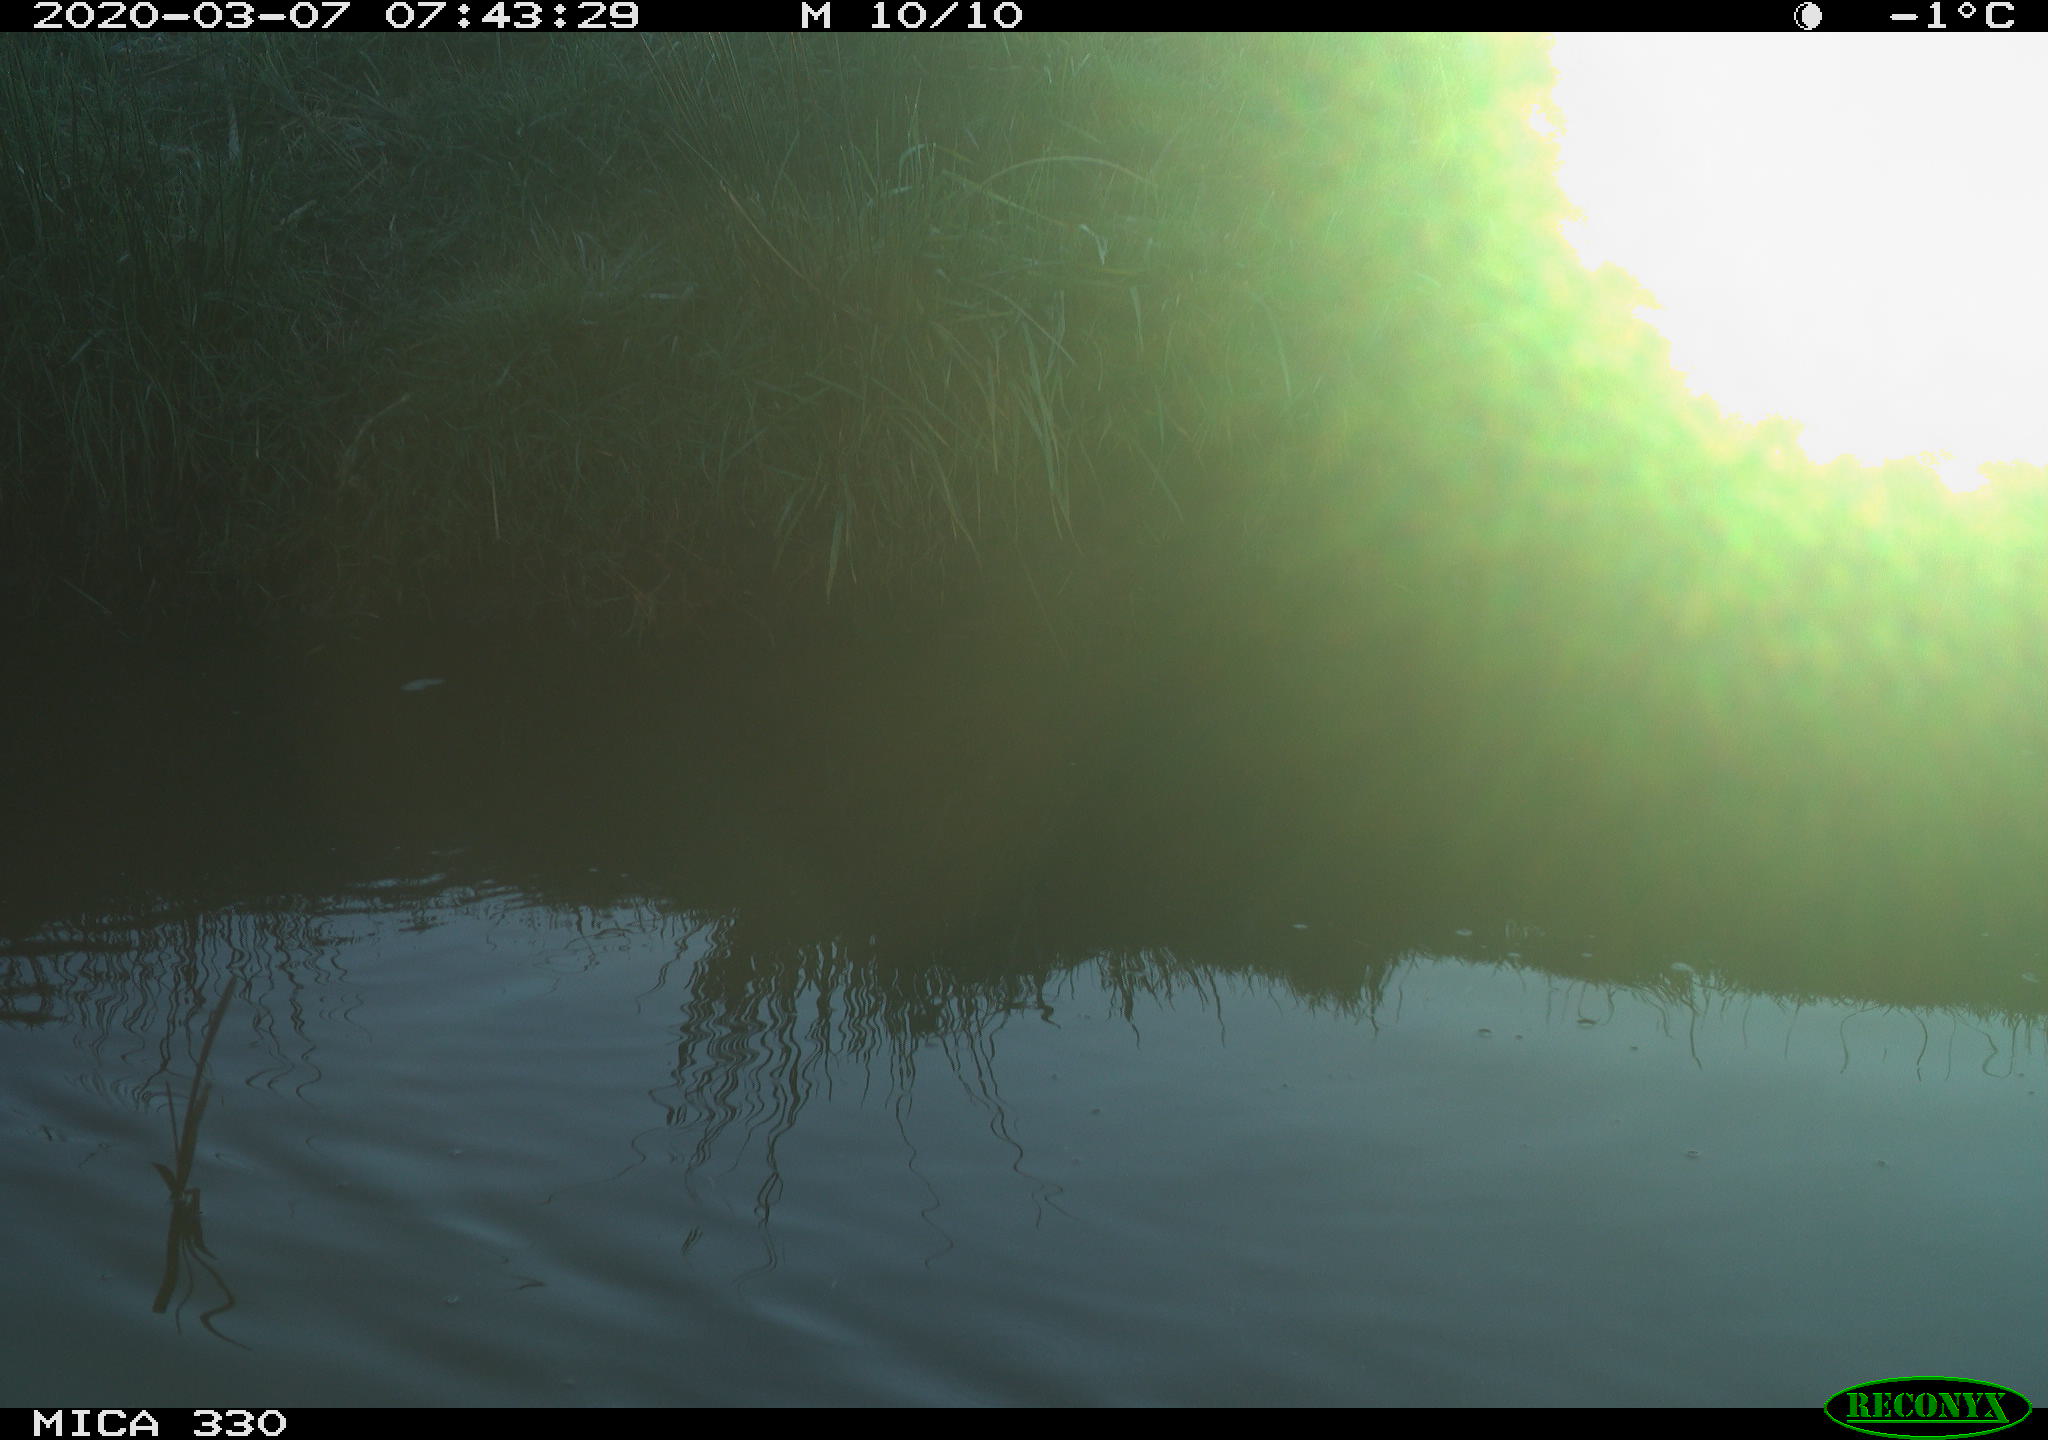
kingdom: Animalia
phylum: Chordata
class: Aves
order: Anseriformes
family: Anatidae
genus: Anas
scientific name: Anas platyrhynchos
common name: Mallard
